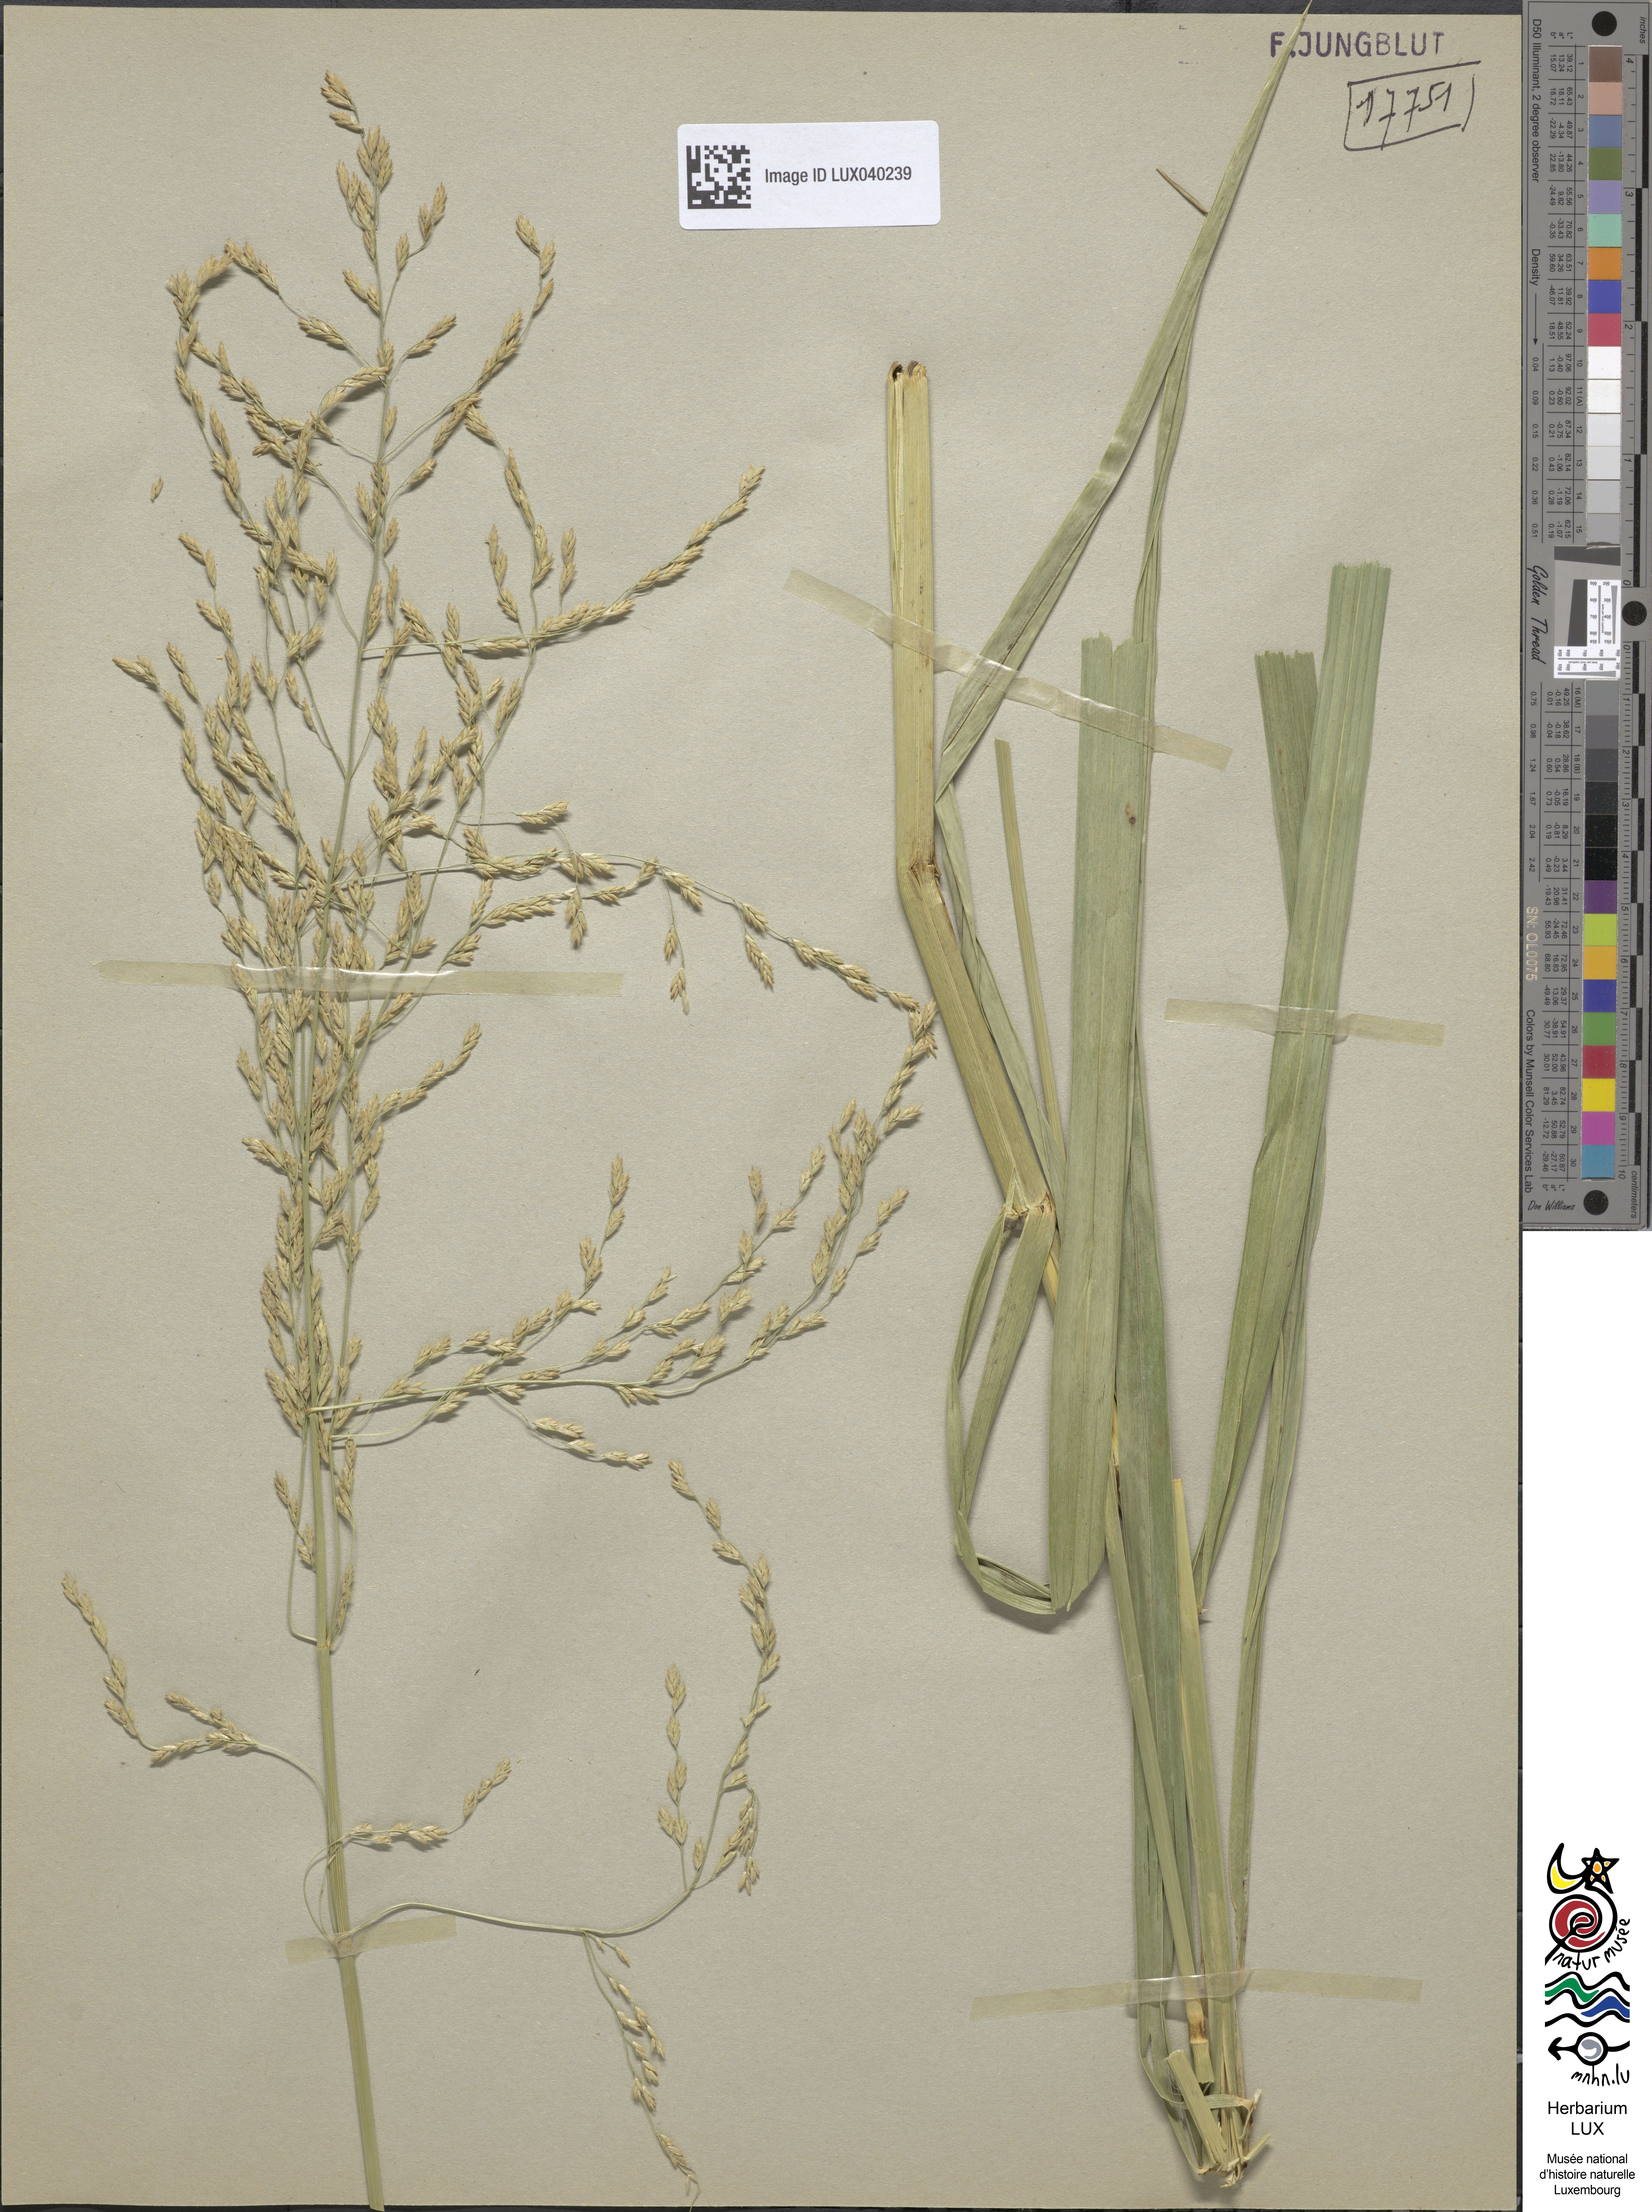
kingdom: Plantae
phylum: Tracheophyta
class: Liliopsida
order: Poales
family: Poaceae
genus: Glyceria
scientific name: Glyceria maxima
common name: Reed mannagrass
